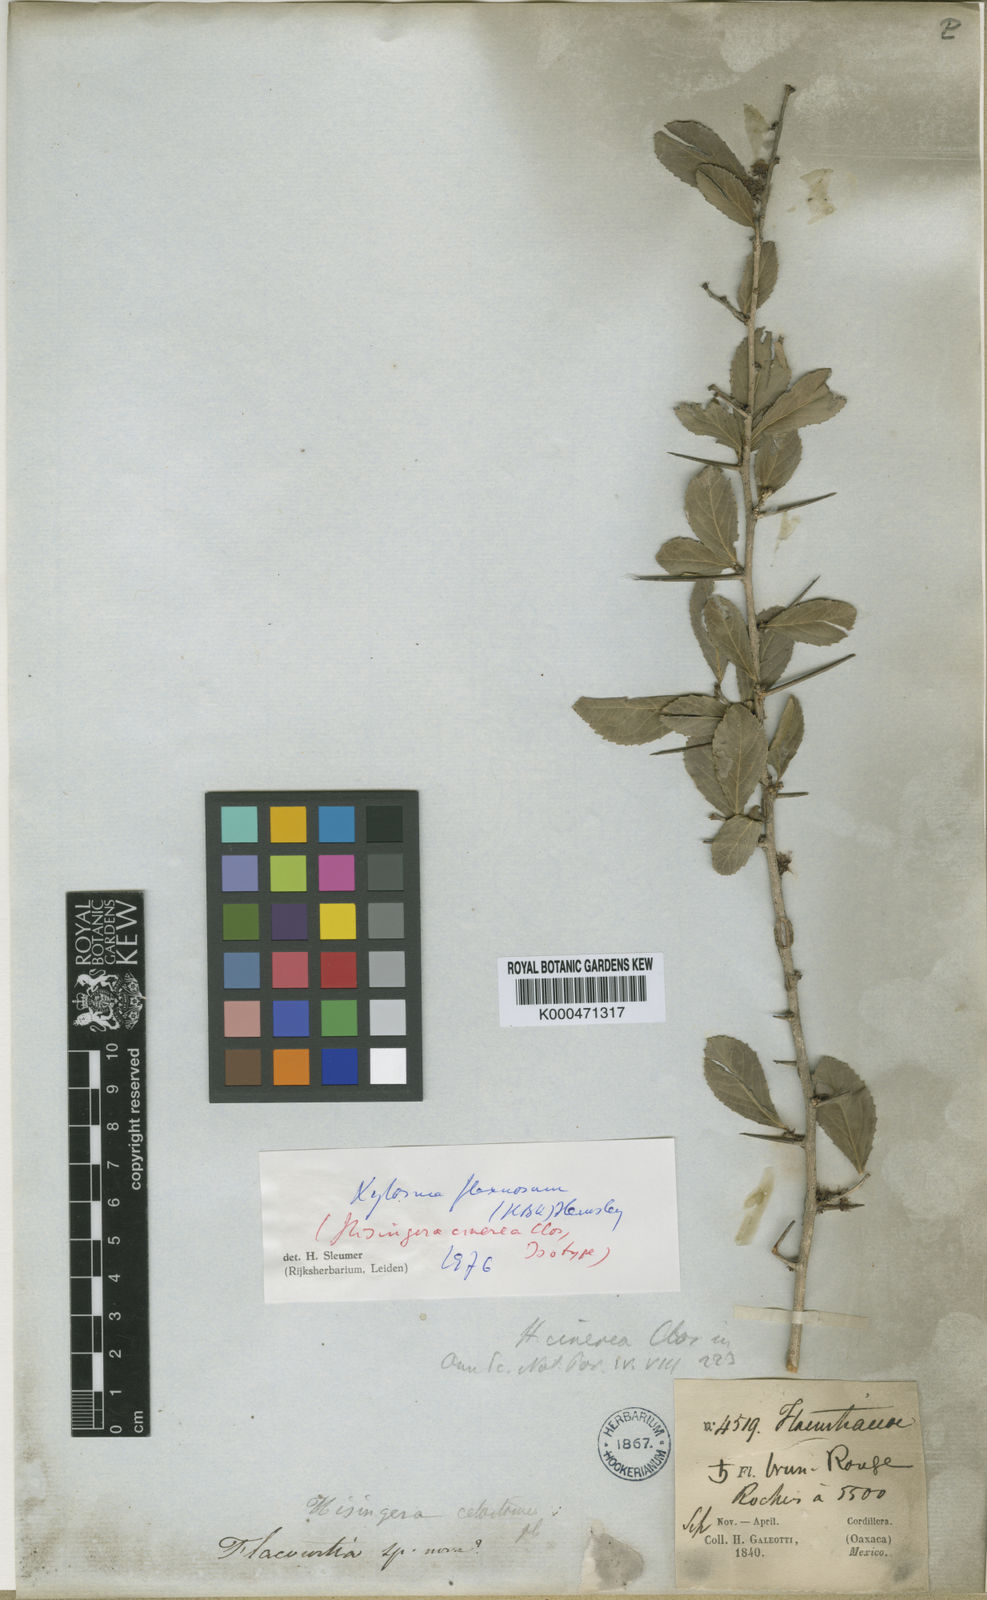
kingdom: Plantae
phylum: Tracheophyta
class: Magnoliopsida
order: Malpighiales
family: Salicaceae
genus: Xylosma
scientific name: Xylosma flexuosa
